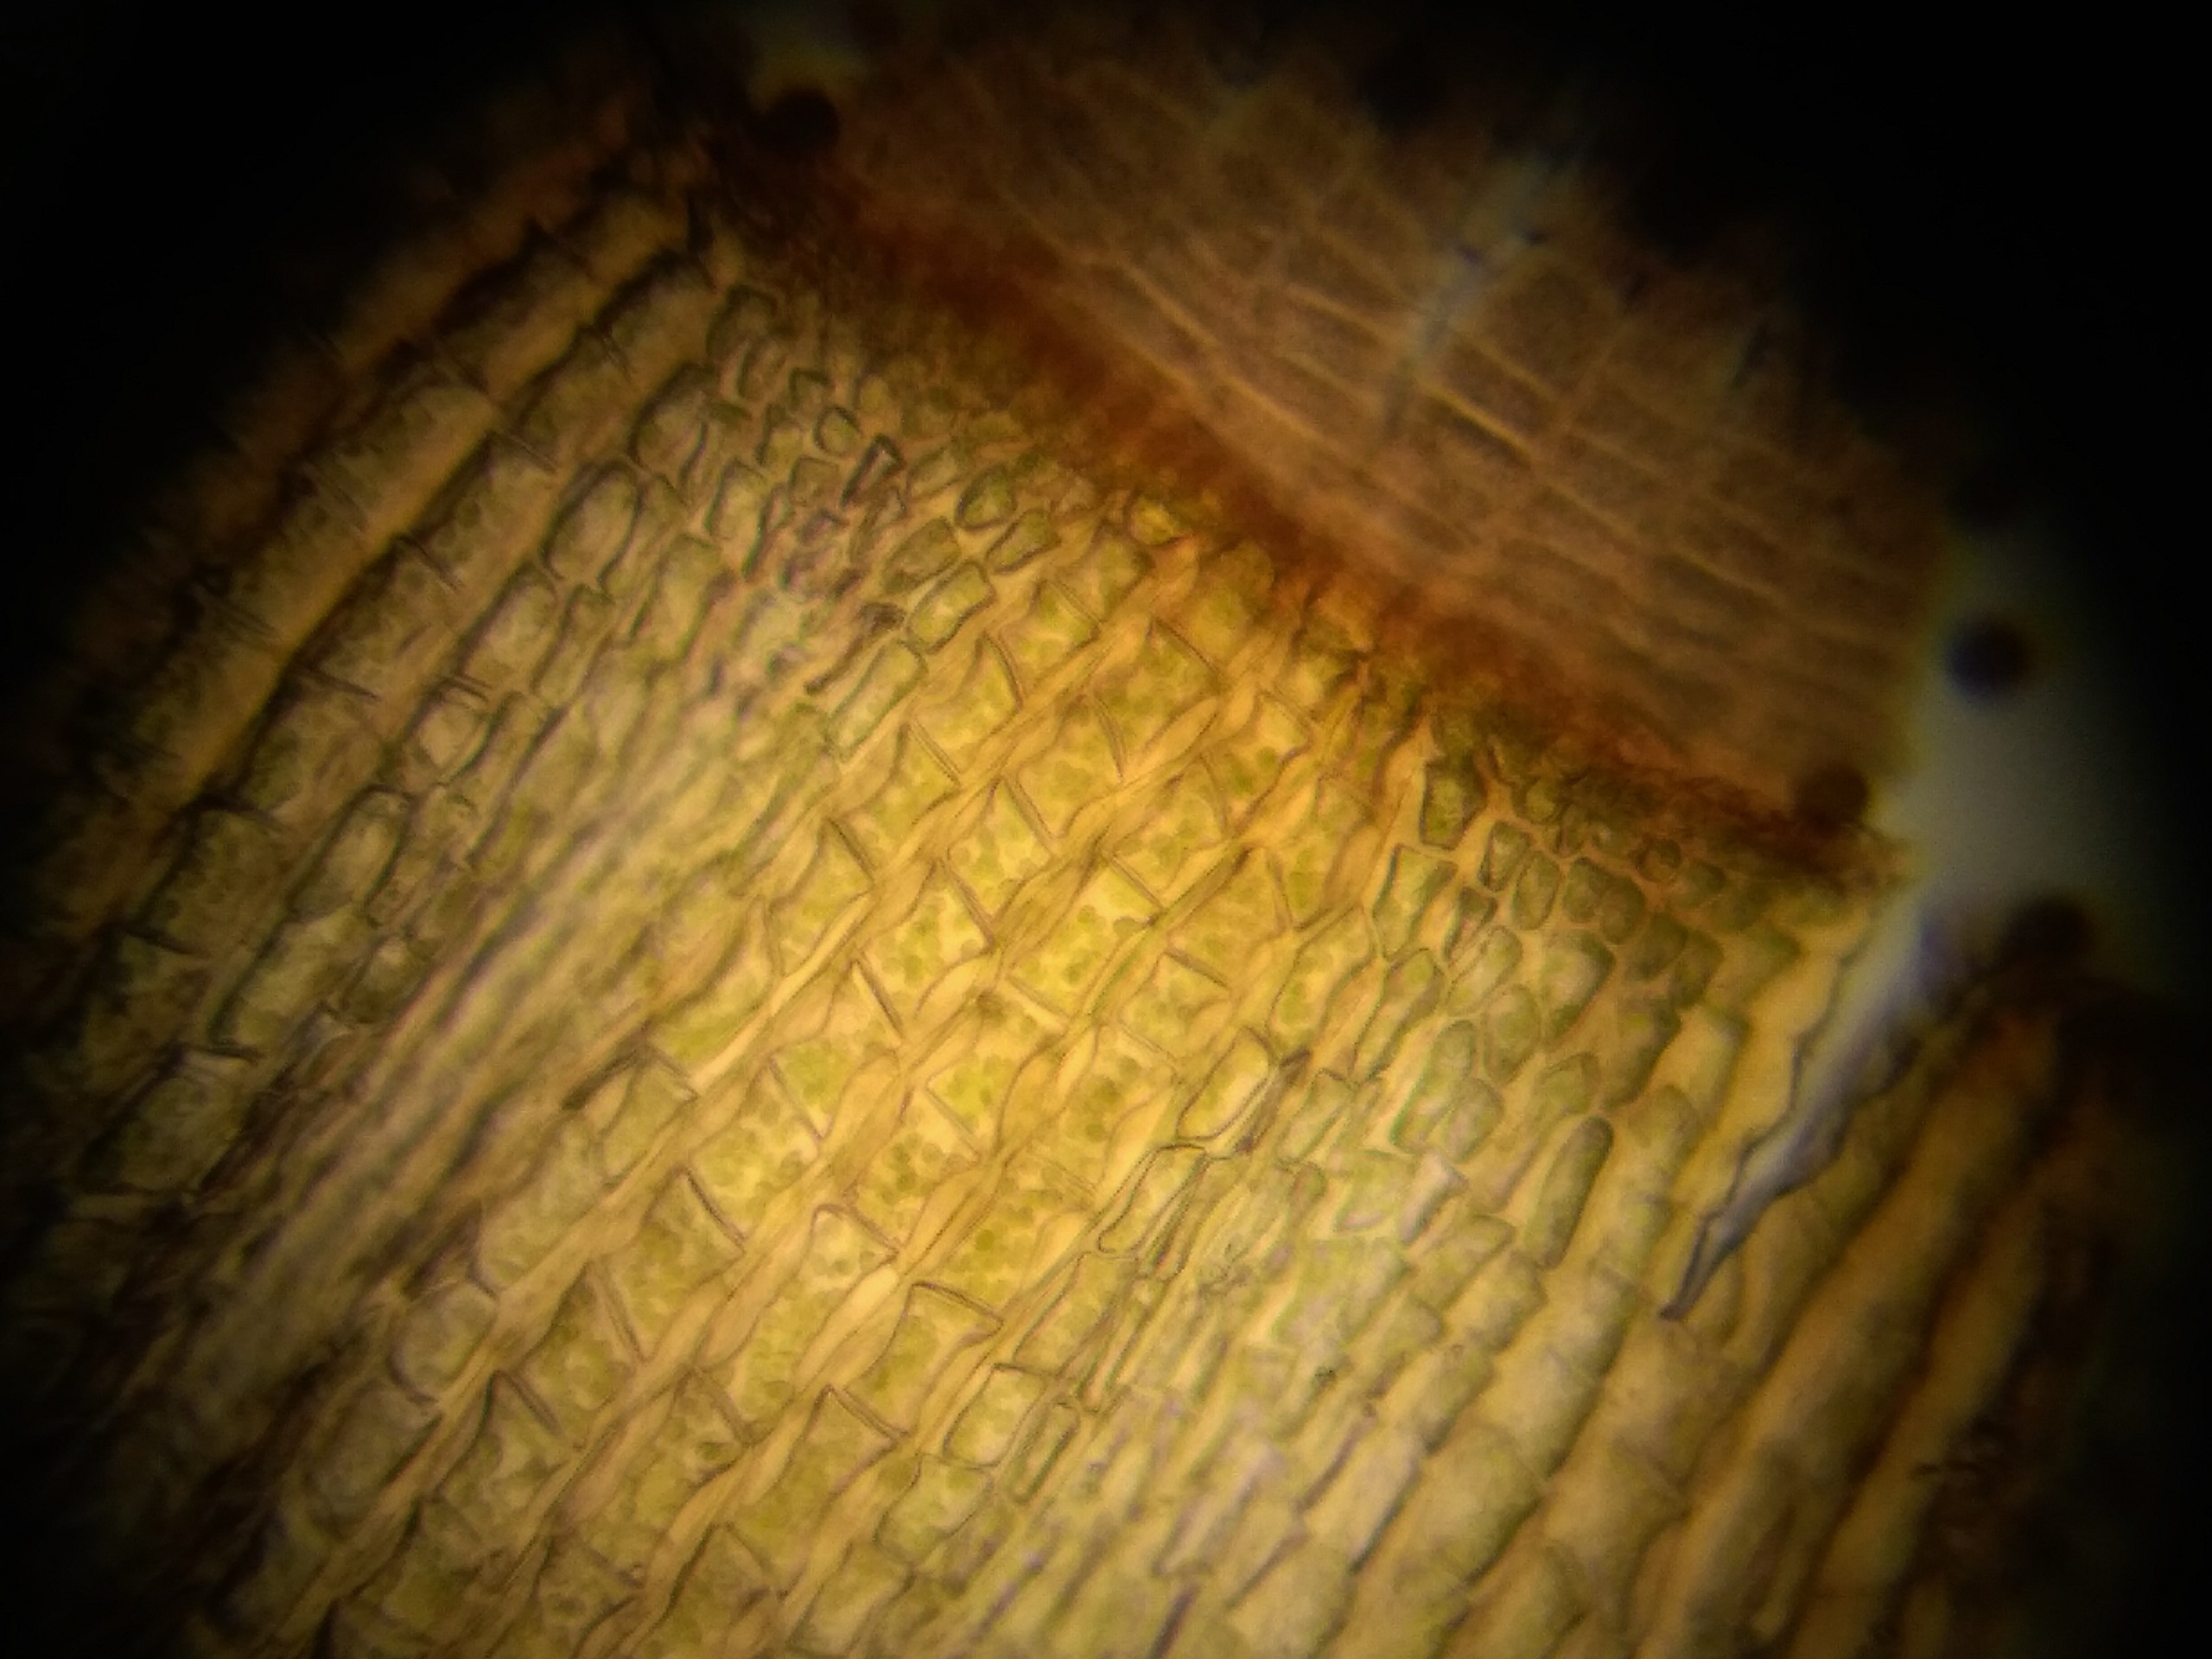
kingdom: Plantae
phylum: Bryophyta
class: Bryopsida
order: Orthotrichales
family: Orthotrichaceae
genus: Ulota
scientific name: Ulota crispa
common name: Kruset låddenhætte
